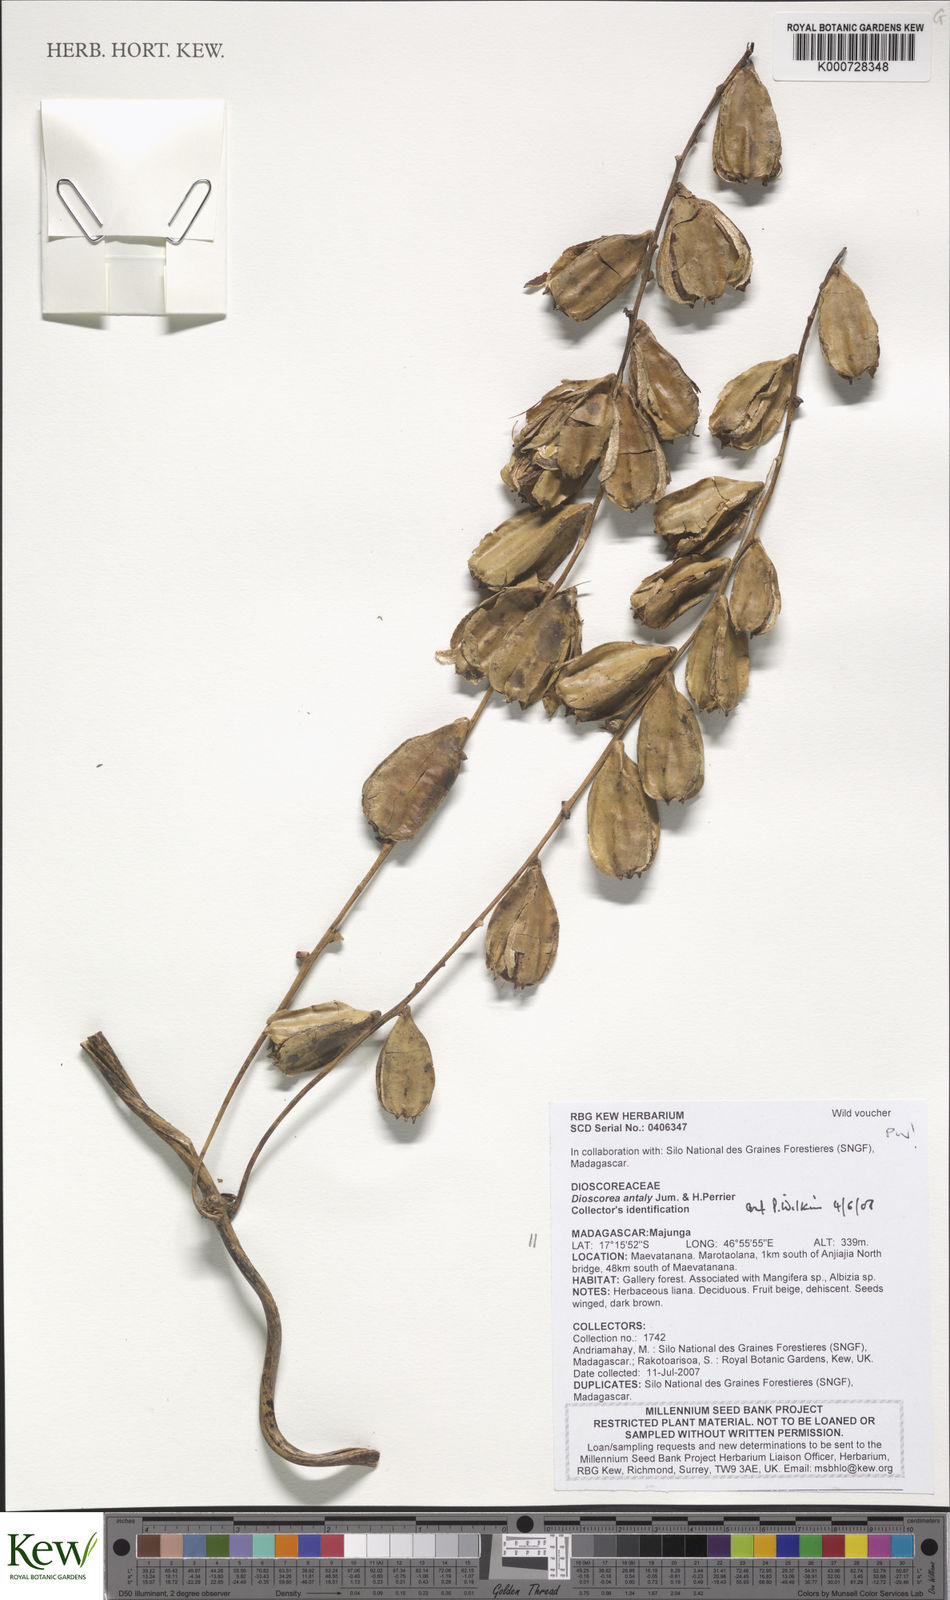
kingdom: Plantae
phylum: Tracheophyta
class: Liliopsida
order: Dioscoreales
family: Dioscoreaceae
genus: Dioscorea
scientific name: Dioscorea antaly
